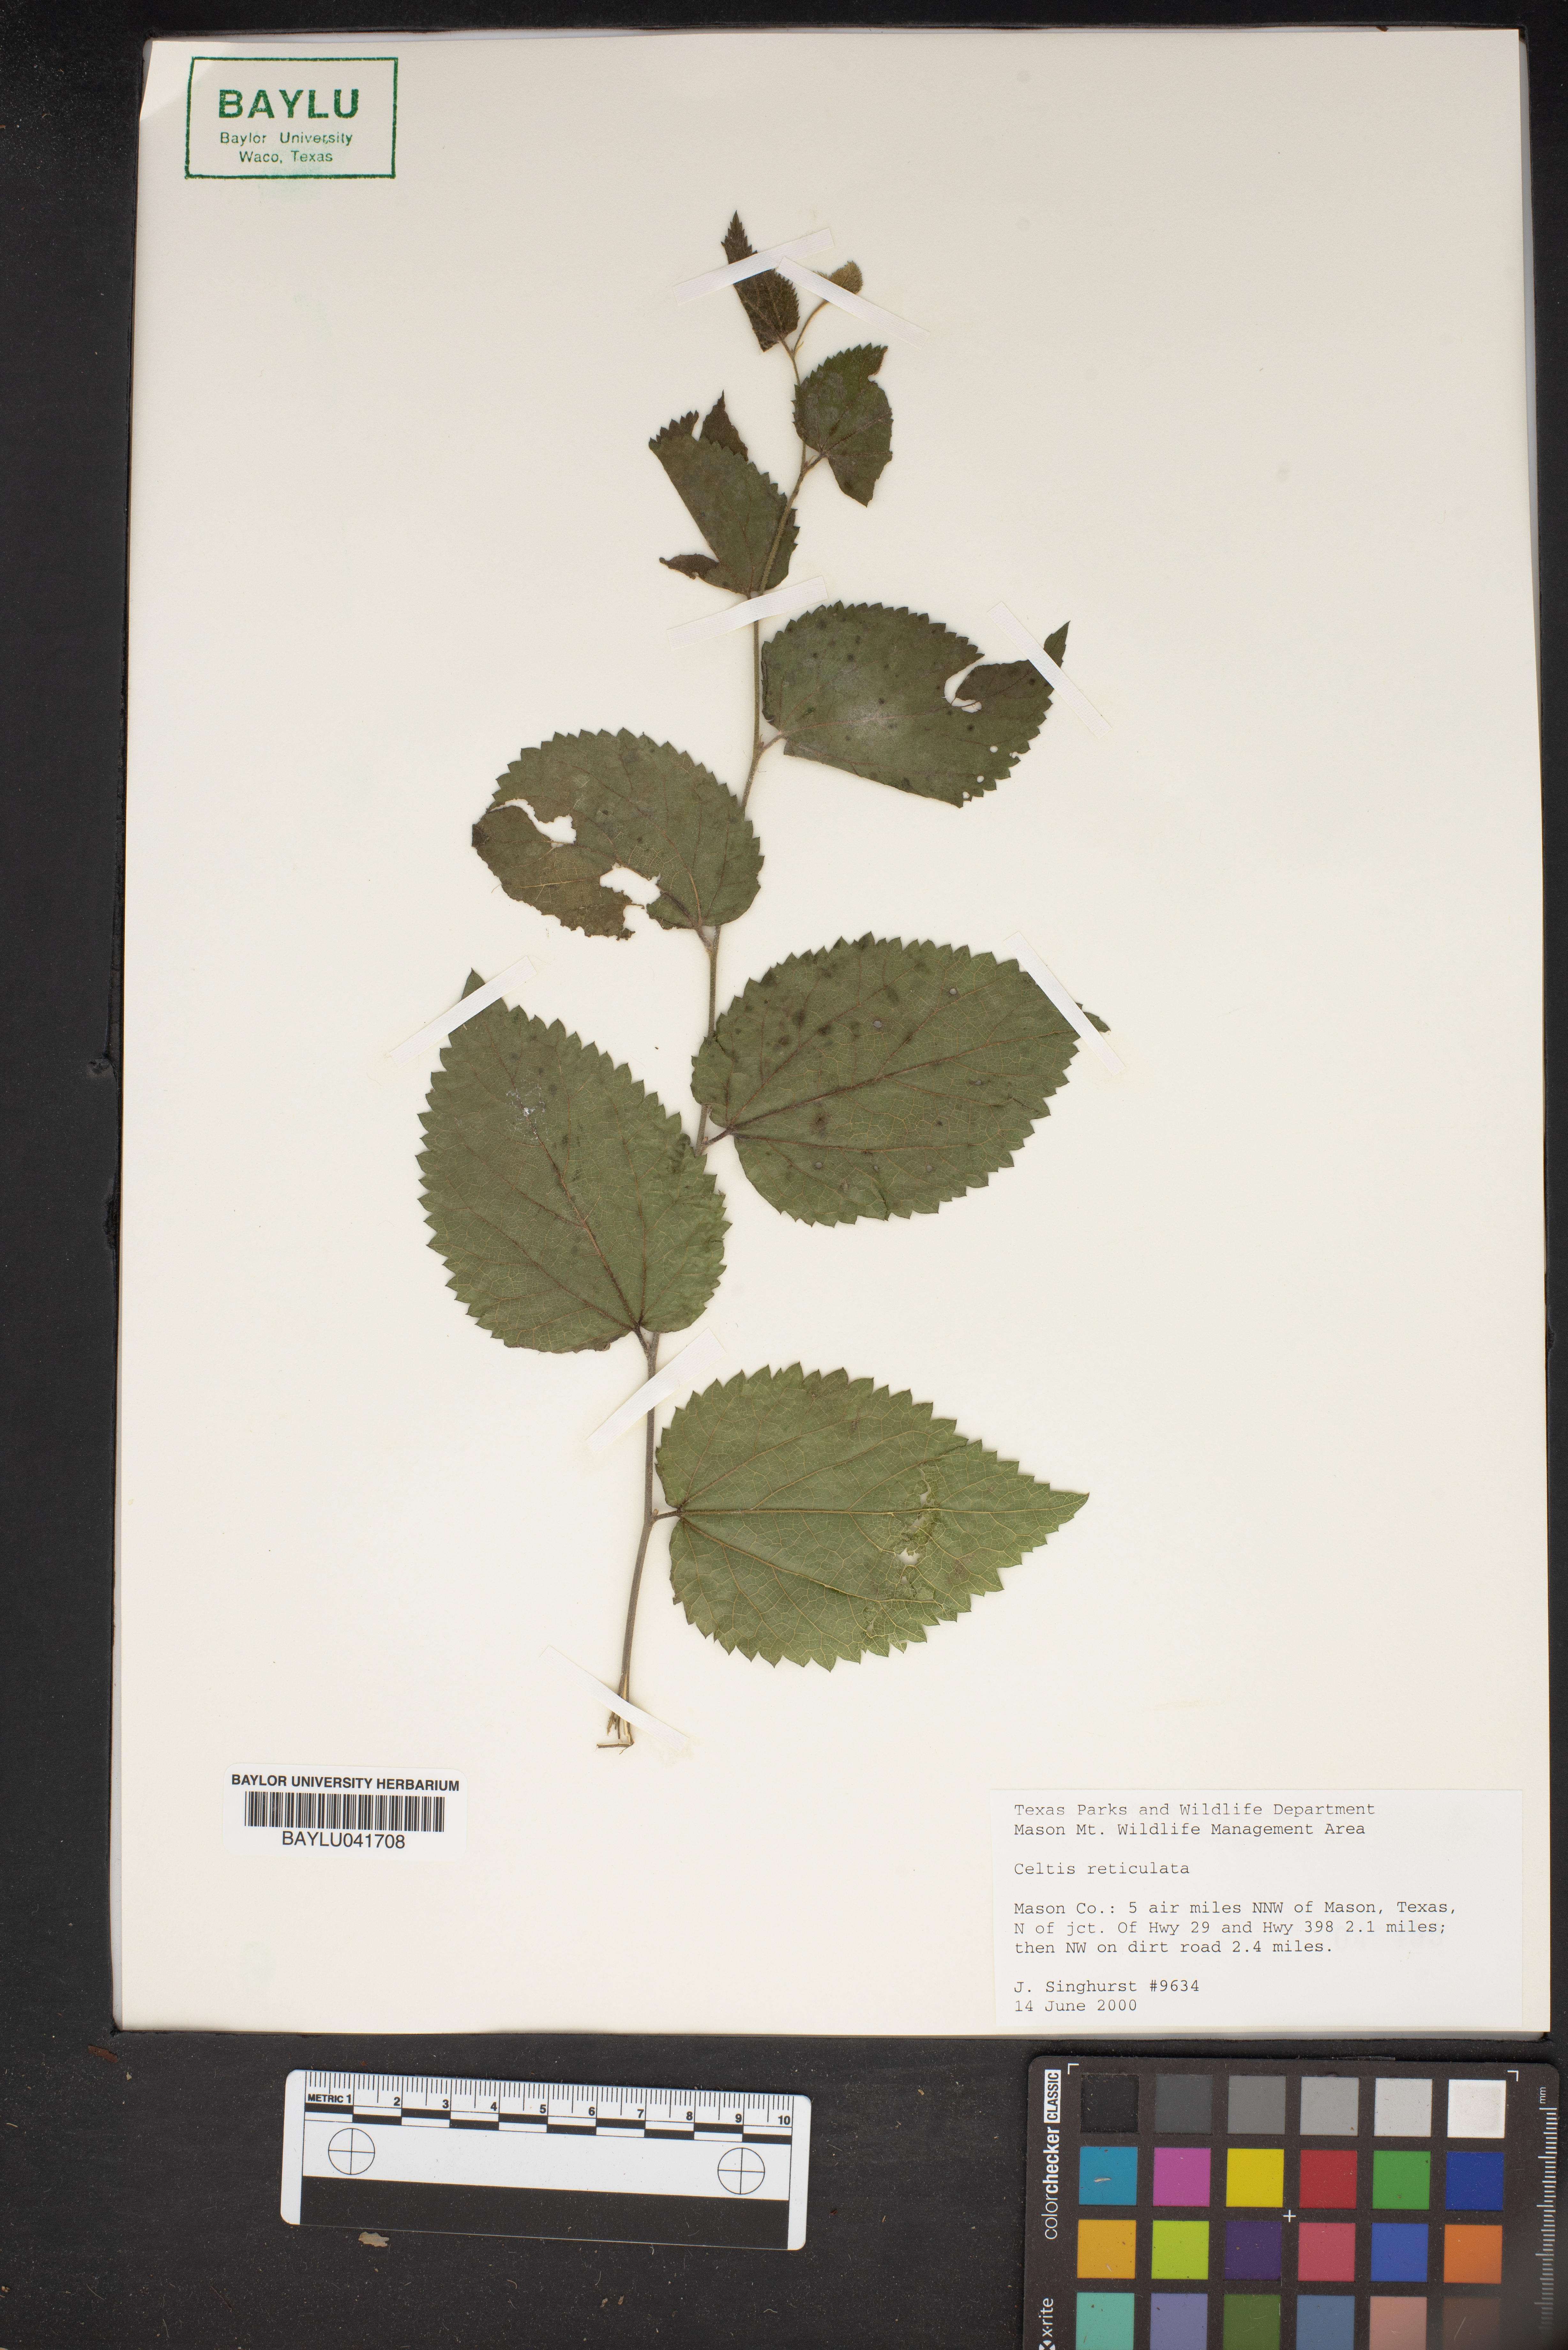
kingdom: Plantae
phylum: Tracheophyta
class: Magnoliopsida
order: Rosales
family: Cannabaceae
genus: Celtis
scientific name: Celtis reticulata
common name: Netleaf hackberry
